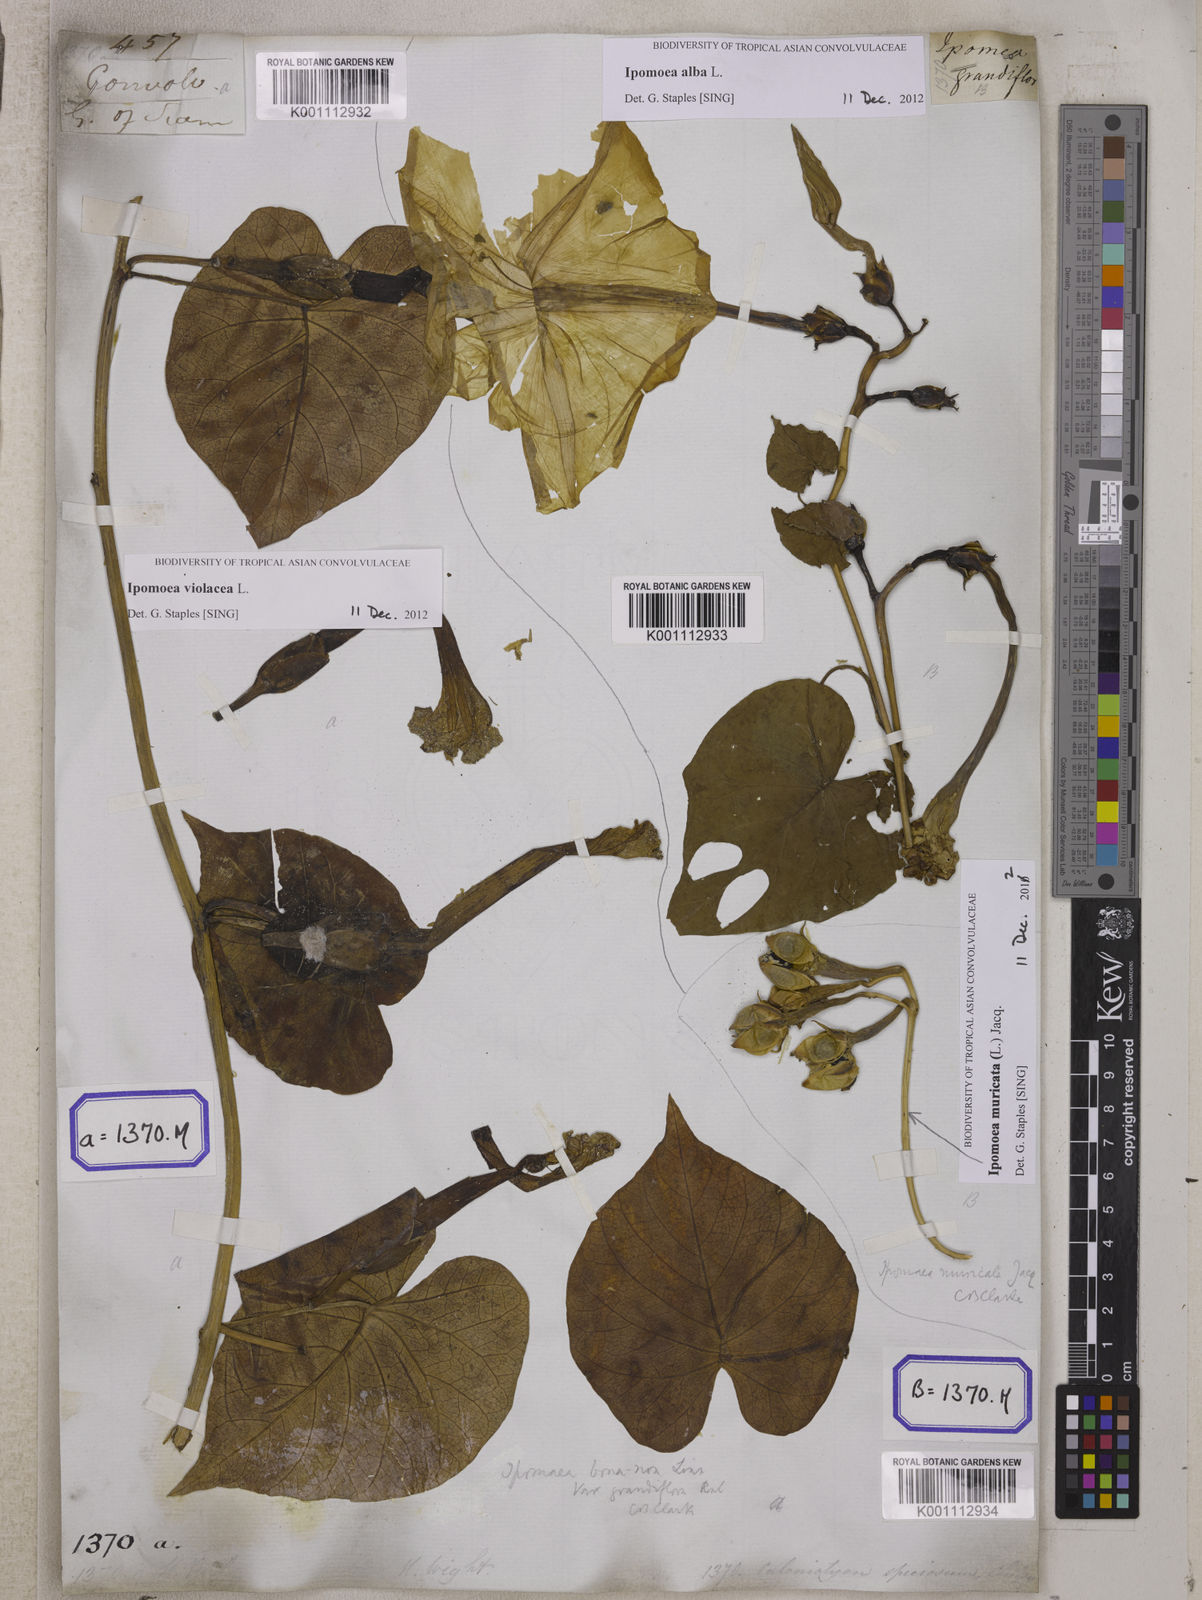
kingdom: Plantae
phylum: Tracheophyta
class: Magnoliopsida
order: Solanales
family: Convolvulaceae
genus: Convolvulus
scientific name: Convolvulus
